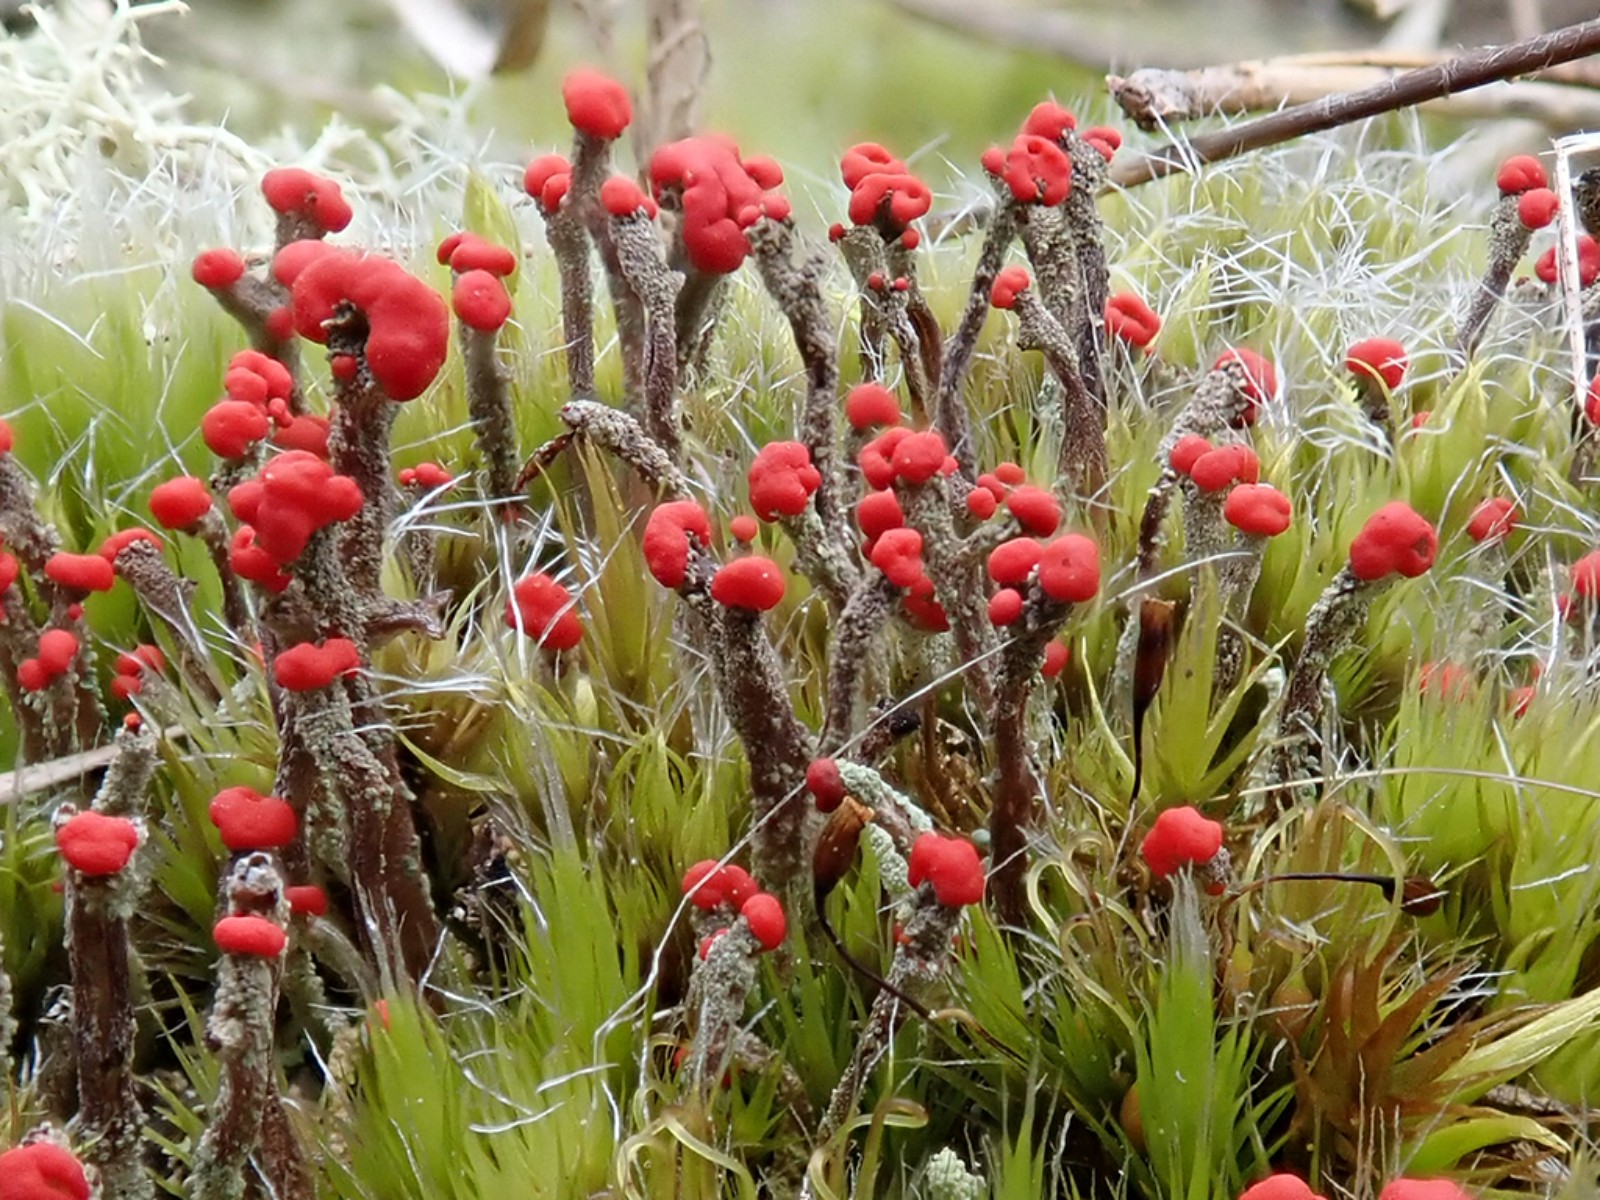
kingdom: Fungi
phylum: Ascomycota
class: Lecanoromycetes
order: Lecanorales
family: Cladoniaceae
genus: Cladonia
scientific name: Cladonia floerkeana
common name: lakrød bægerlav
